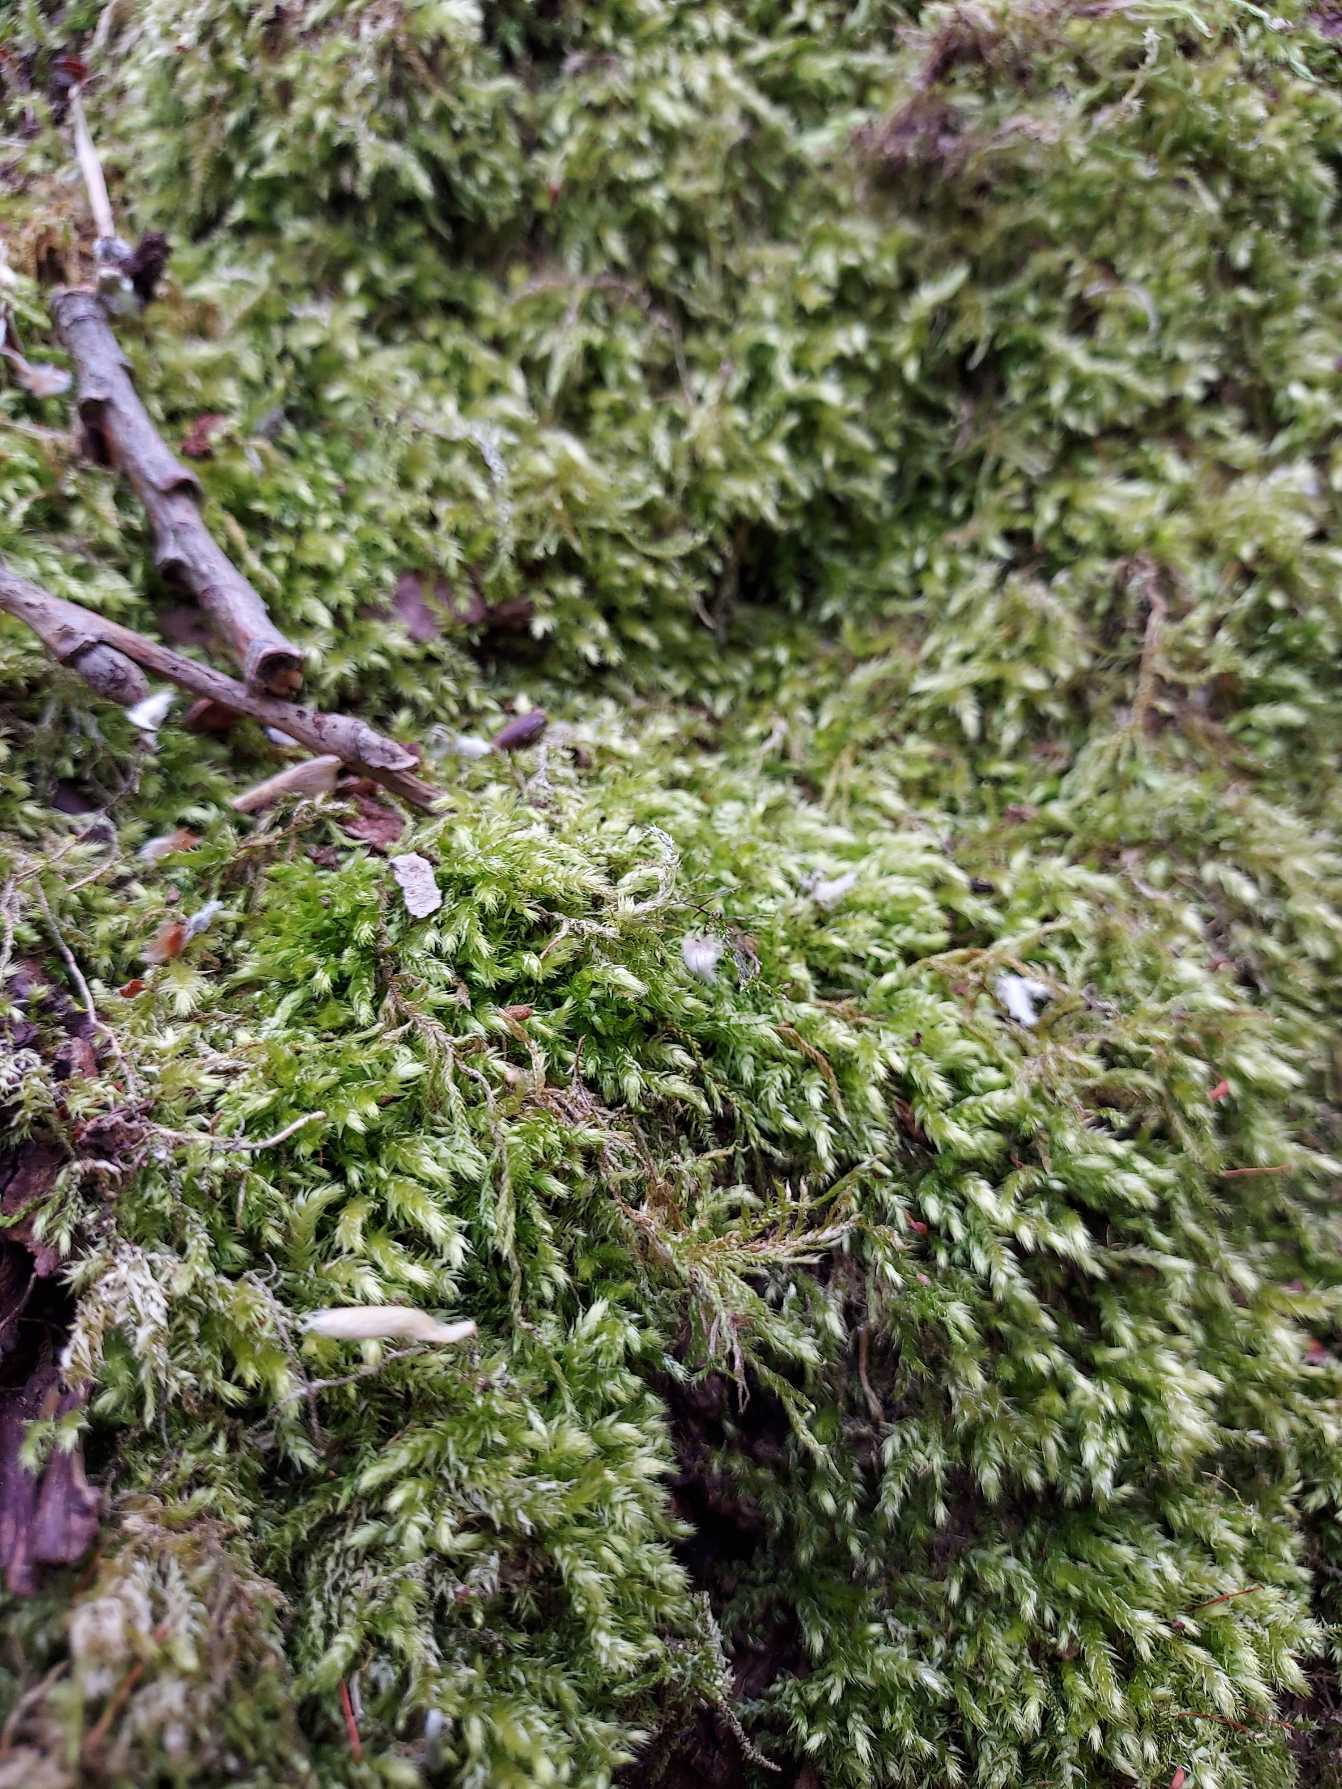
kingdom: Plantae
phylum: Bryophyta
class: Bryopsida
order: Hypnales
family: Brachytheciaceae
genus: Brachythecium
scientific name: Brachythecium rutabulum
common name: Almindelig kortkapsel
